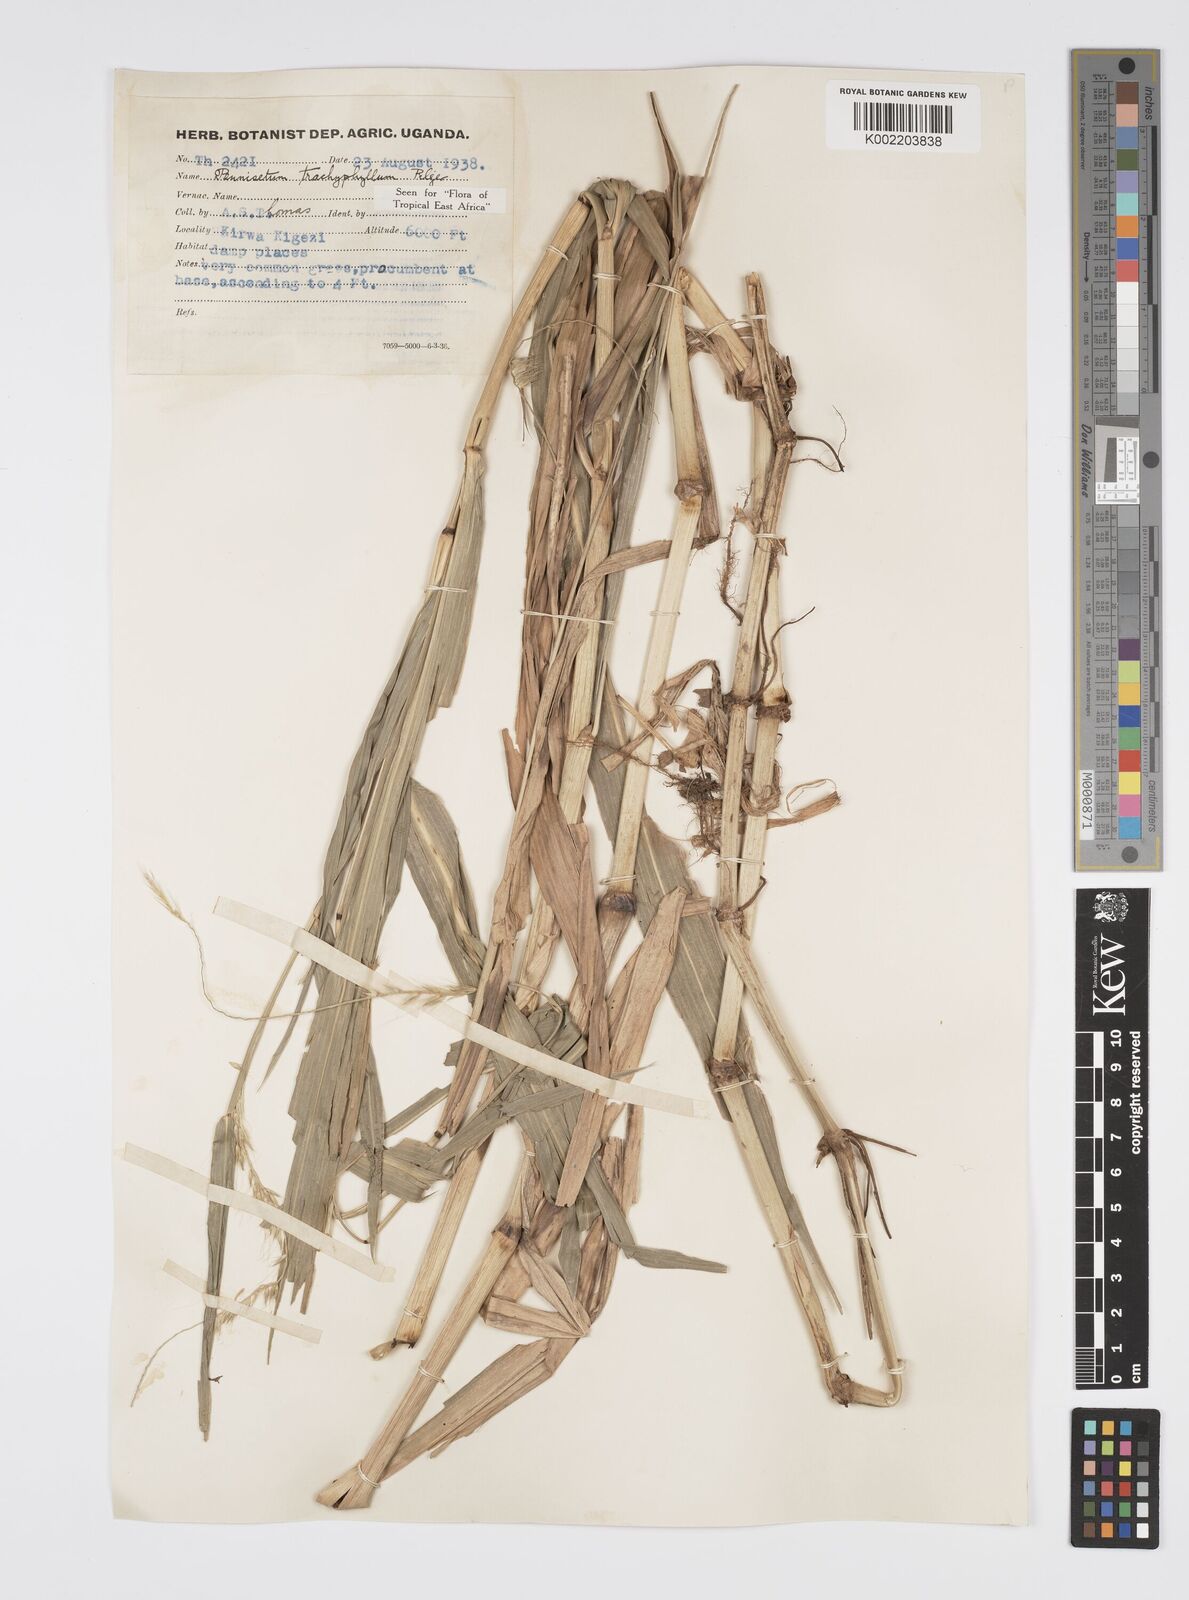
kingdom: Plantae
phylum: Tracheophyta
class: Liliopsida
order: Poales
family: Poaceae
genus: Cenchrus
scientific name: Cenchrus trachyphyllus
